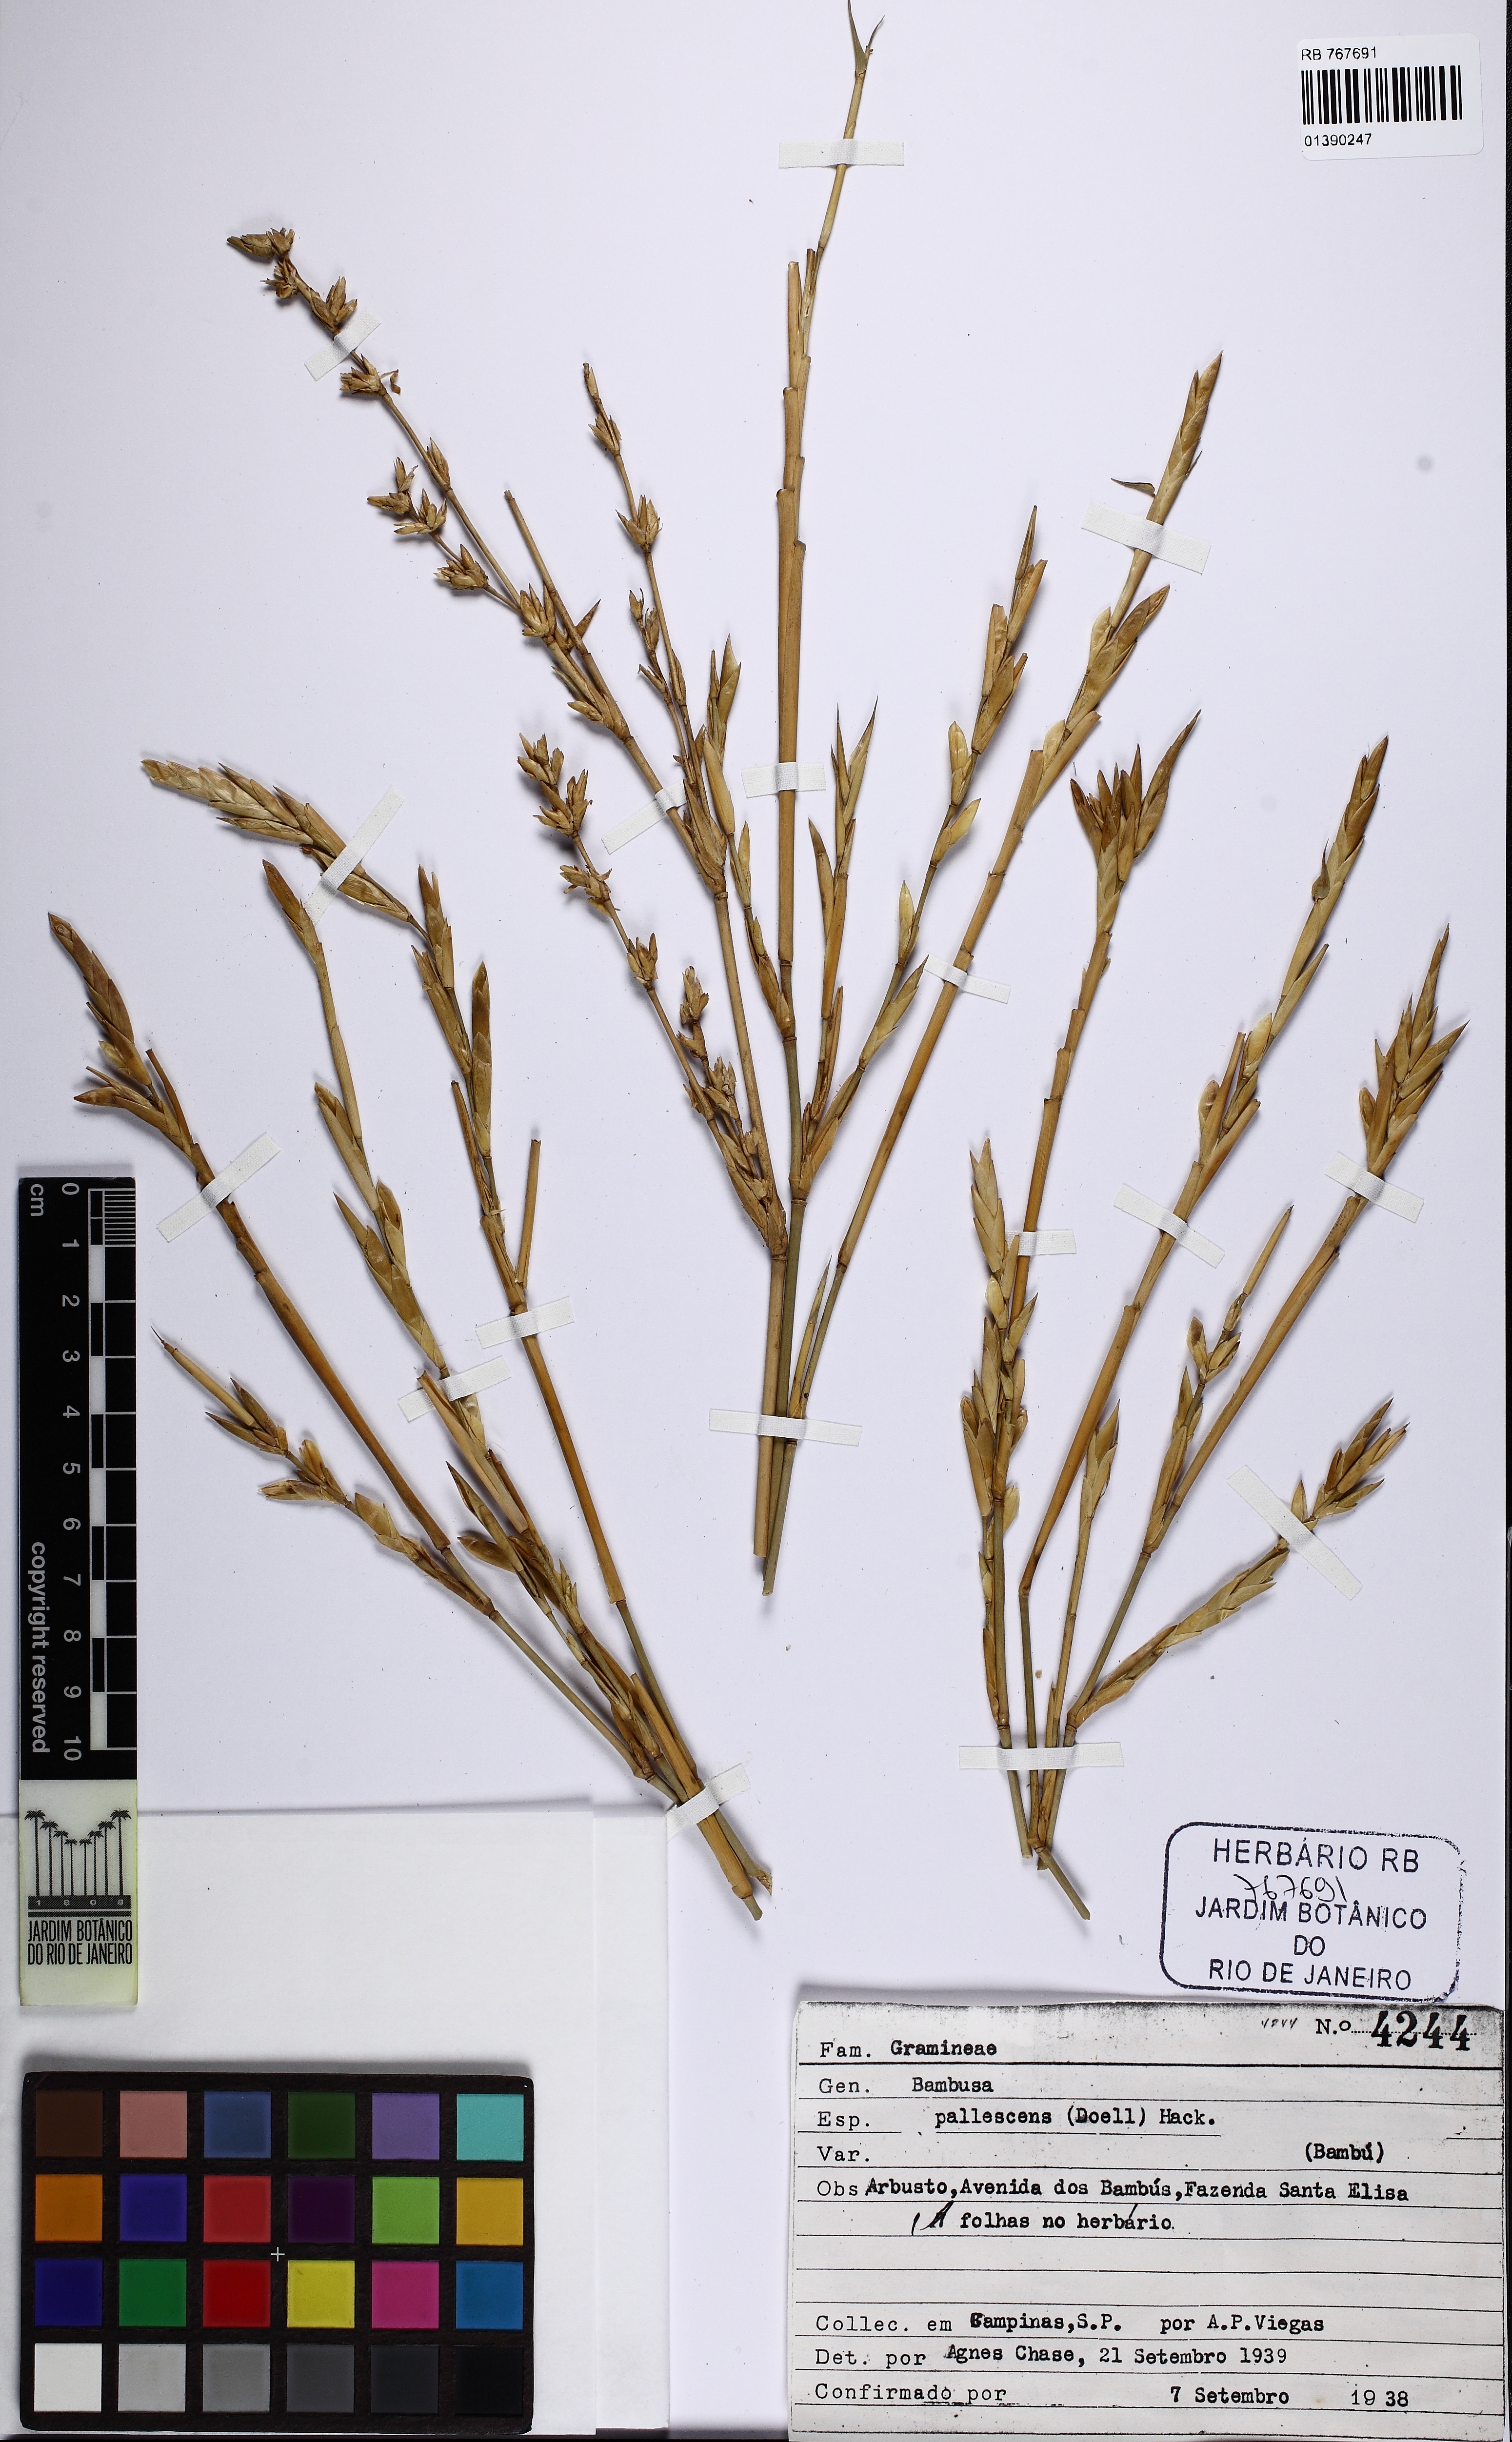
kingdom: Plantae
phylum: Tracheophyta
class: Liliopsida
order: Poales
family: Poaceae
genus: Bambusa
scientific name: Bambusa tuldoides
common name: Verdant bamboo
